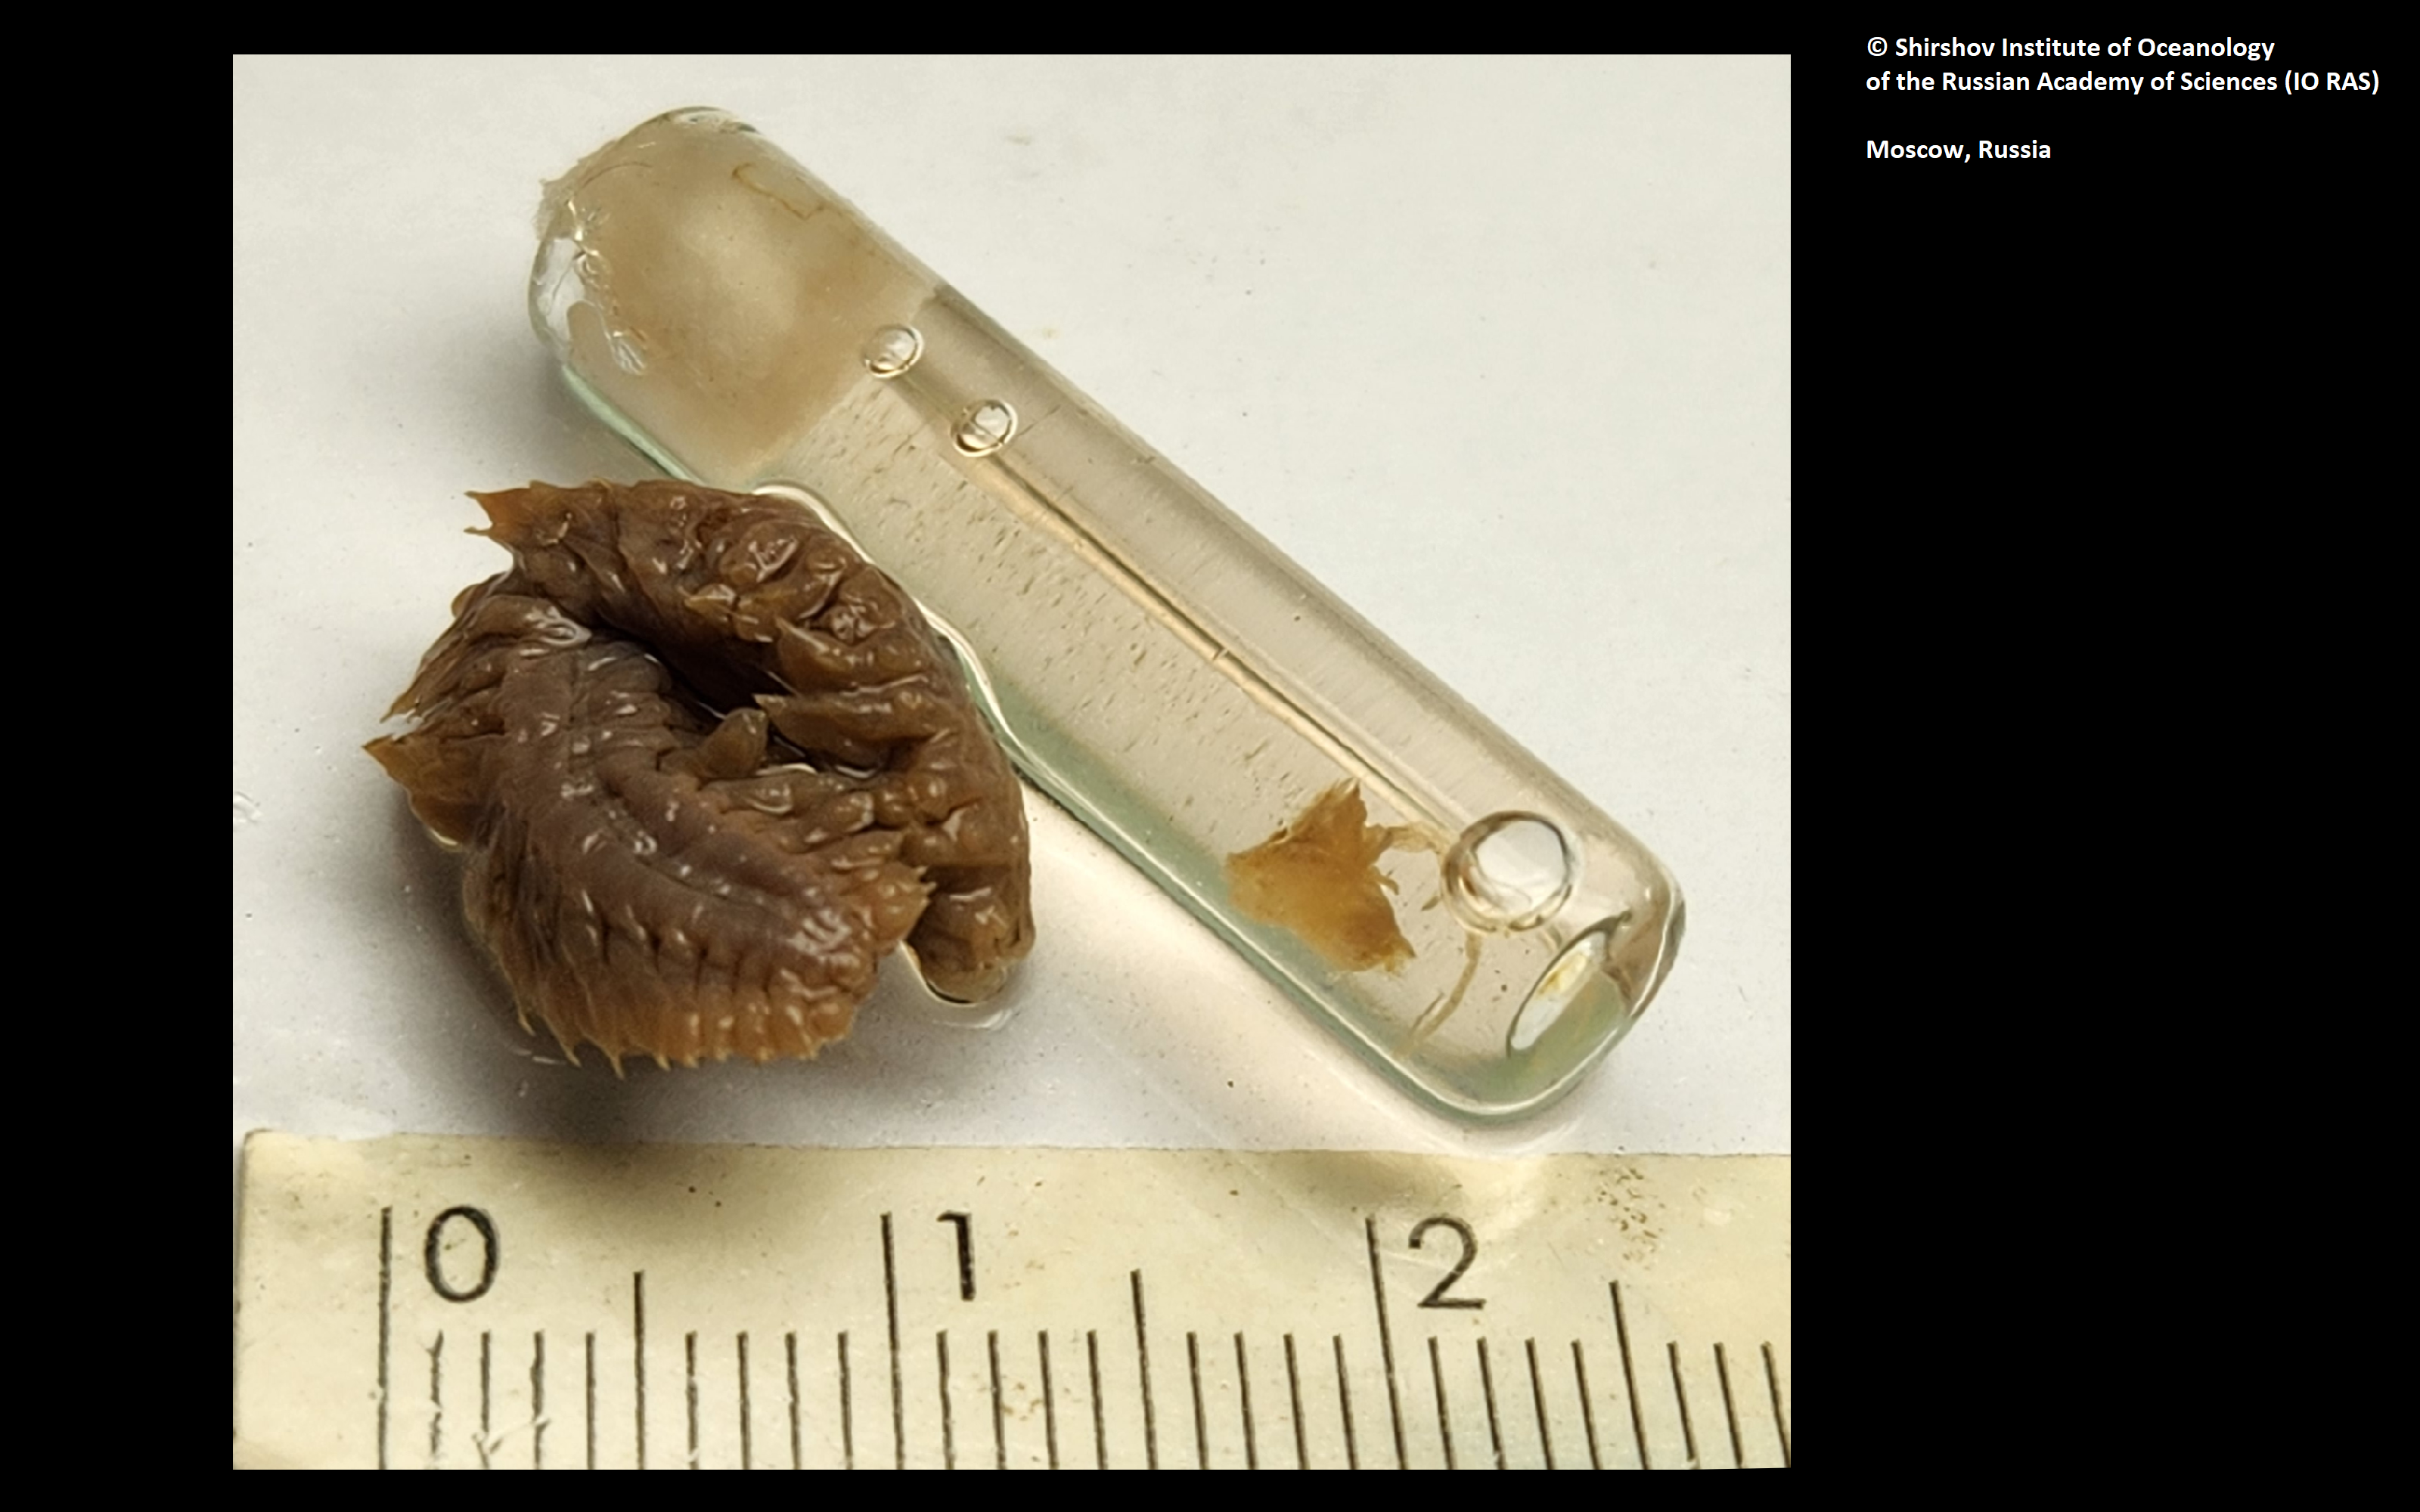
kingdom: Animalia
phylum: Annelida
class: Polychaeta
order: Phyllodocida
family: Polynoidae
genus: Bathyedithia
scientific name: Bathyedithia berkeleyi
